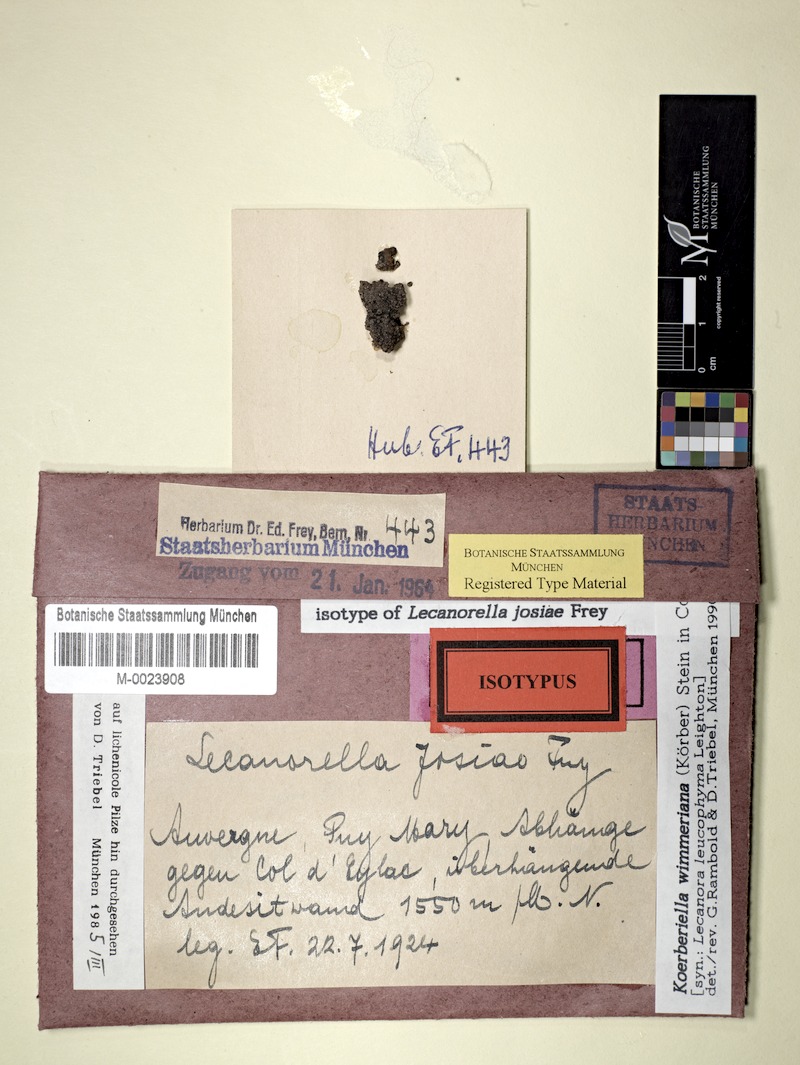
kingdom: Fungi
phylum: Ascomycota
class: Lecanoromycetes
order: Lecideales
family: Lecideaceae
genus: Koerberiella
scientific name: Koerberiella wimmeriana
